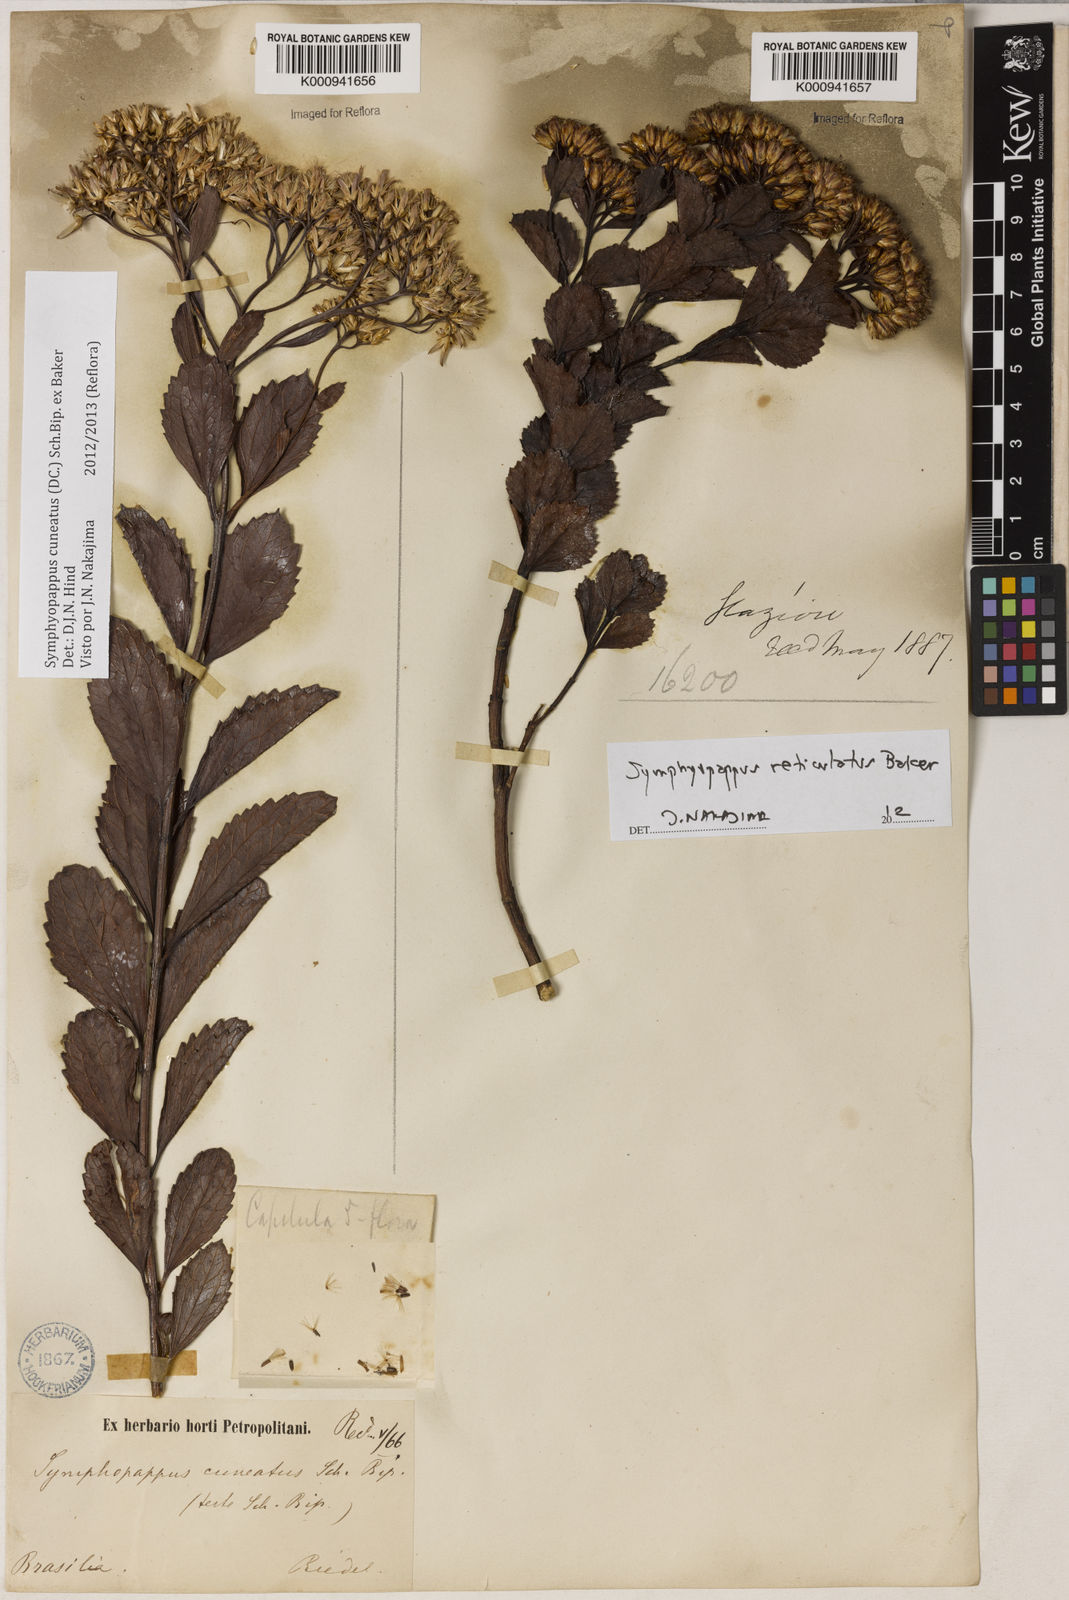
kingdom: Plantae
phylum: Tracheophyta
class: Magnoliopsida
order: Asterales
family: Asteraceae
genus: Symphyopappus
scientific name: Symphyopappus cuneatus
